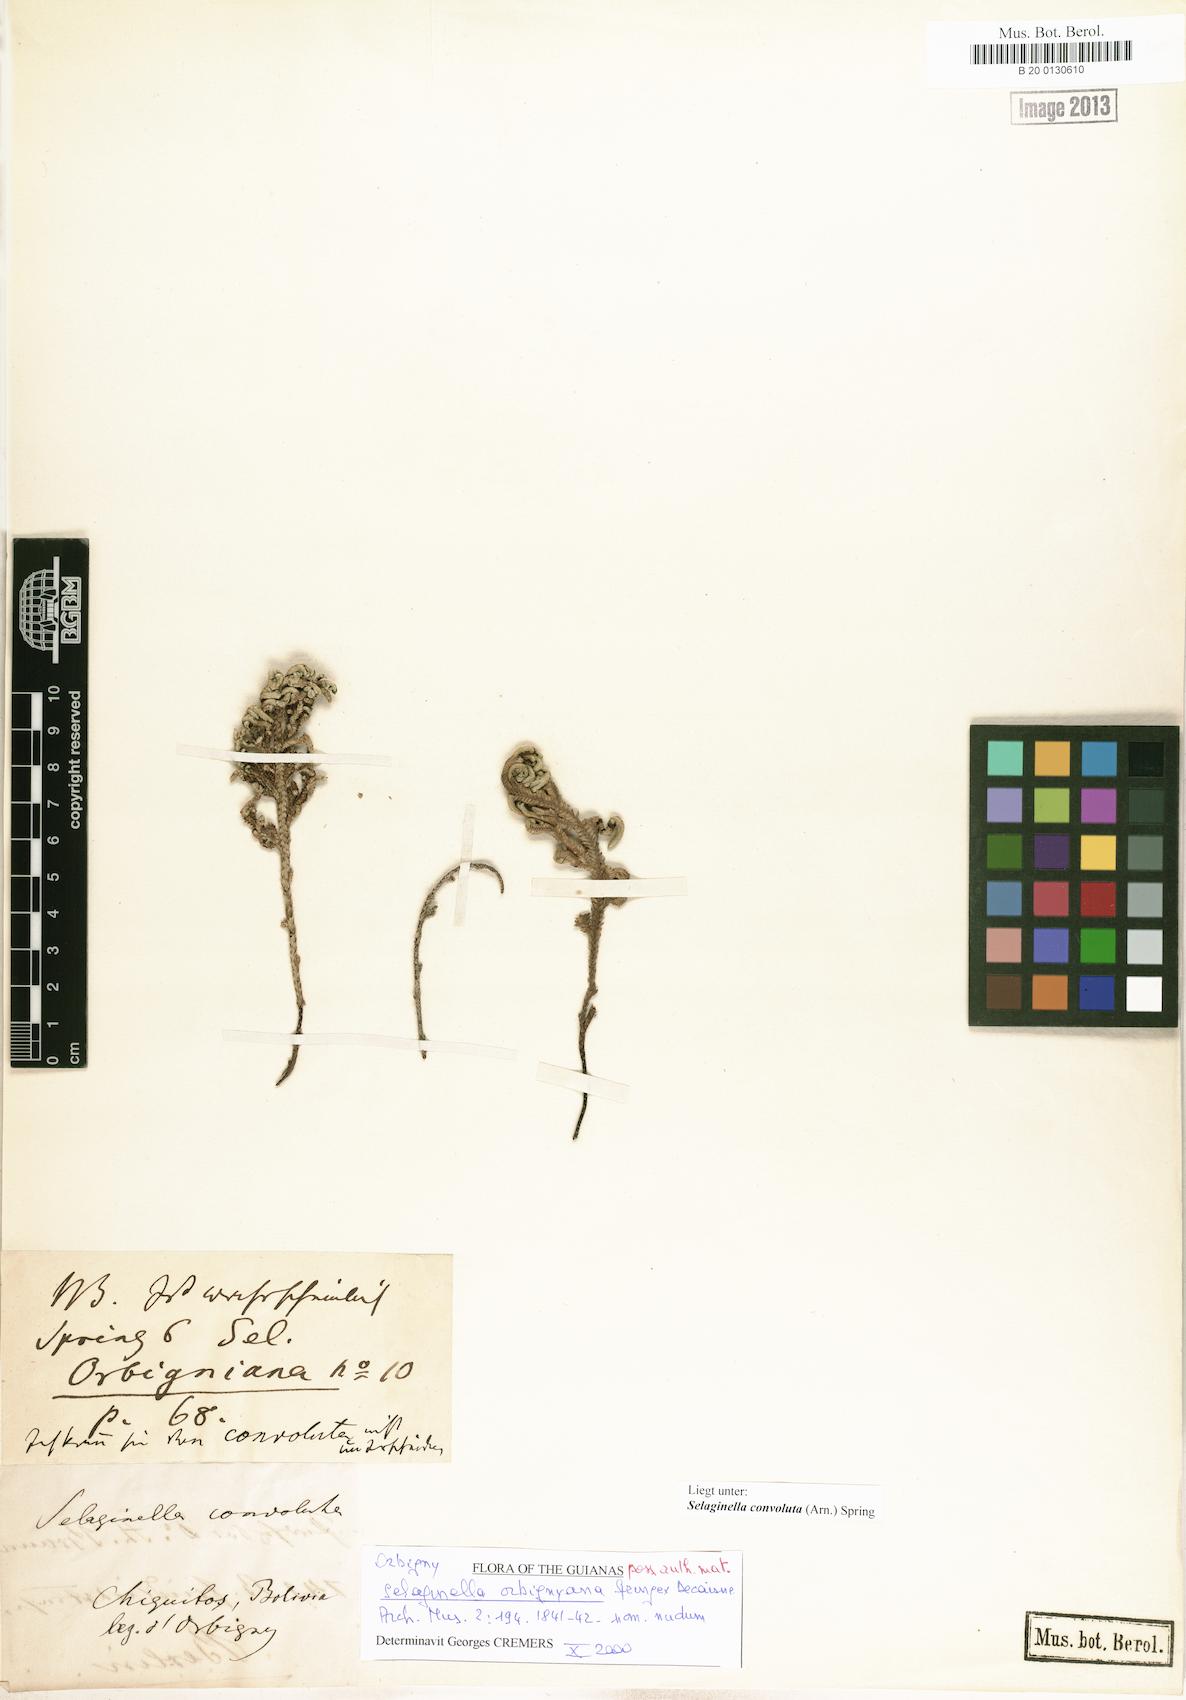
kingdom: Plantae
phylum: Tracheophyta
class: Lycopodiopsida
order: Selaginellales
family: Selaginellaceae
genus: Selaginella
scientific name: Selaginella convoluta
